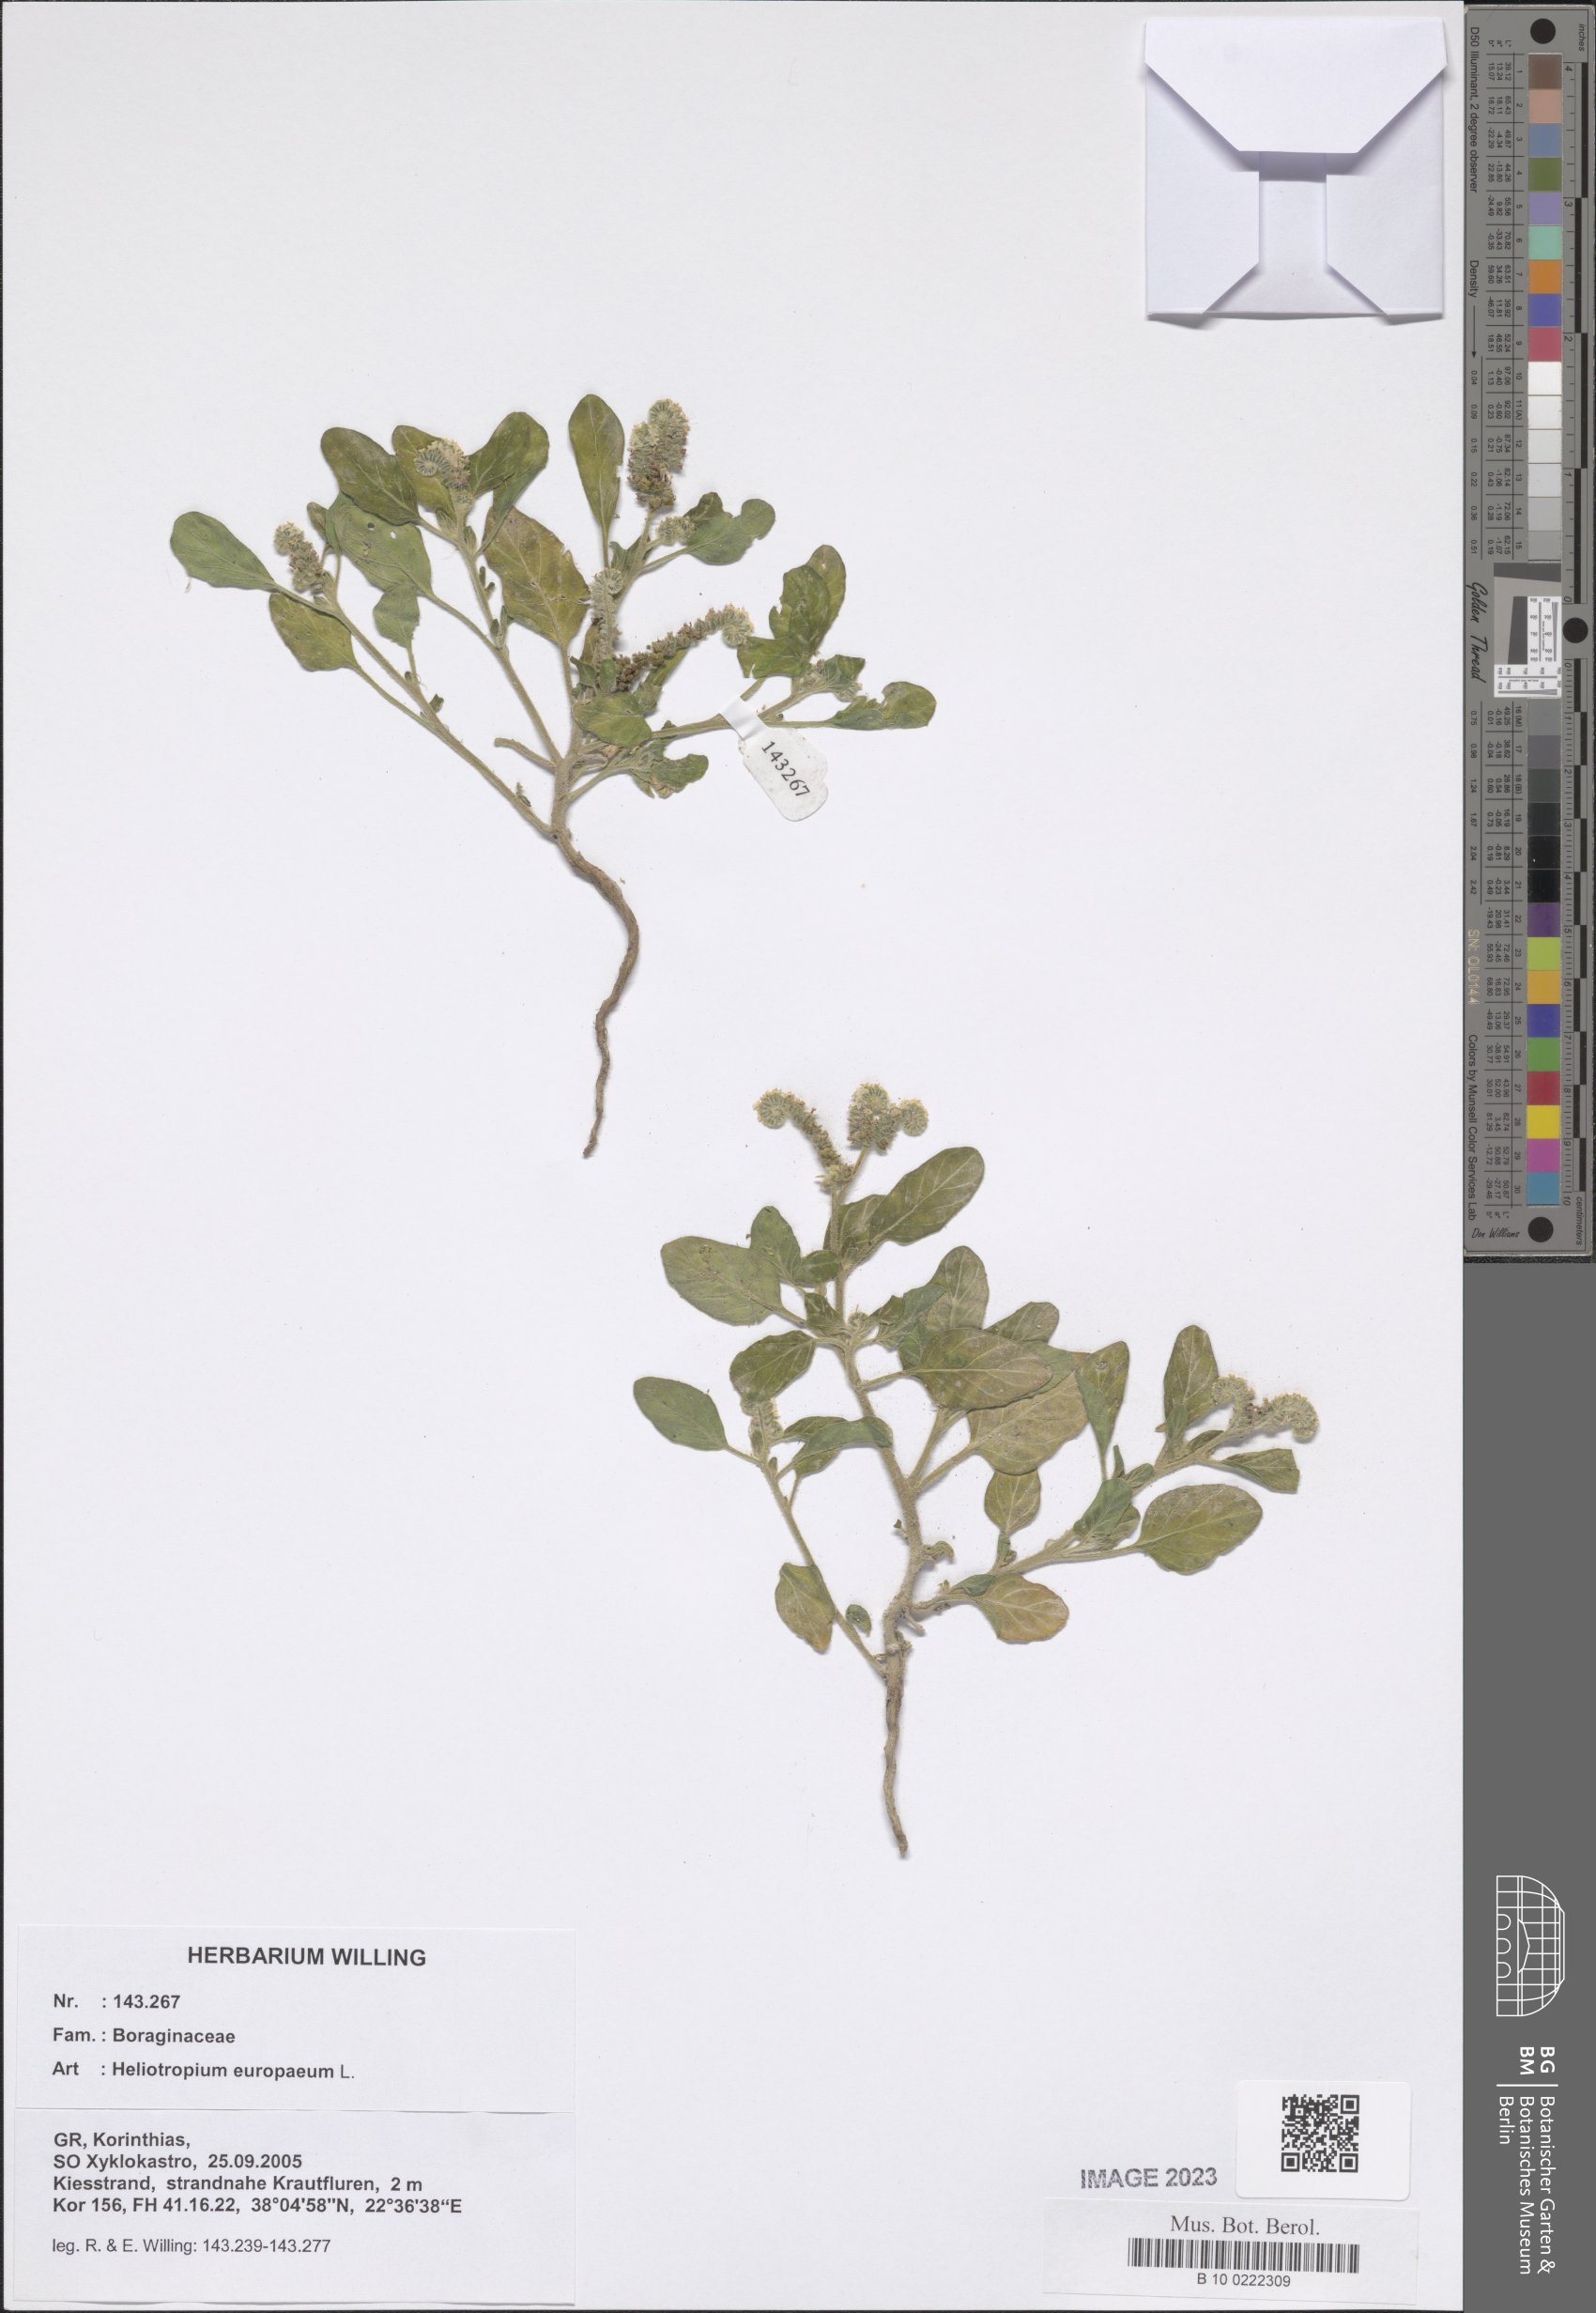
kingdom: Plantae
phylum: Tracheophyta
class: Magnoliopsida
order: Boraginales
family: Heliotropiaceae
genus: Heliotropium
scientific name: Heliotropium europaeum
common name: European heliotrope
